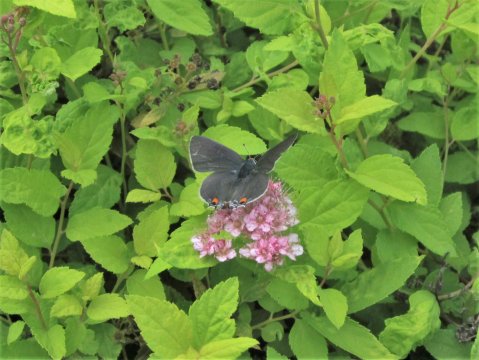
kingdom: Animalia
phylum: Arthropoda
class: Insecta
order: Lepidoptera
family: Lycaenidae
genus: Strymon
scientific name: Strymon melinus
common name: Gray Hairstreak
